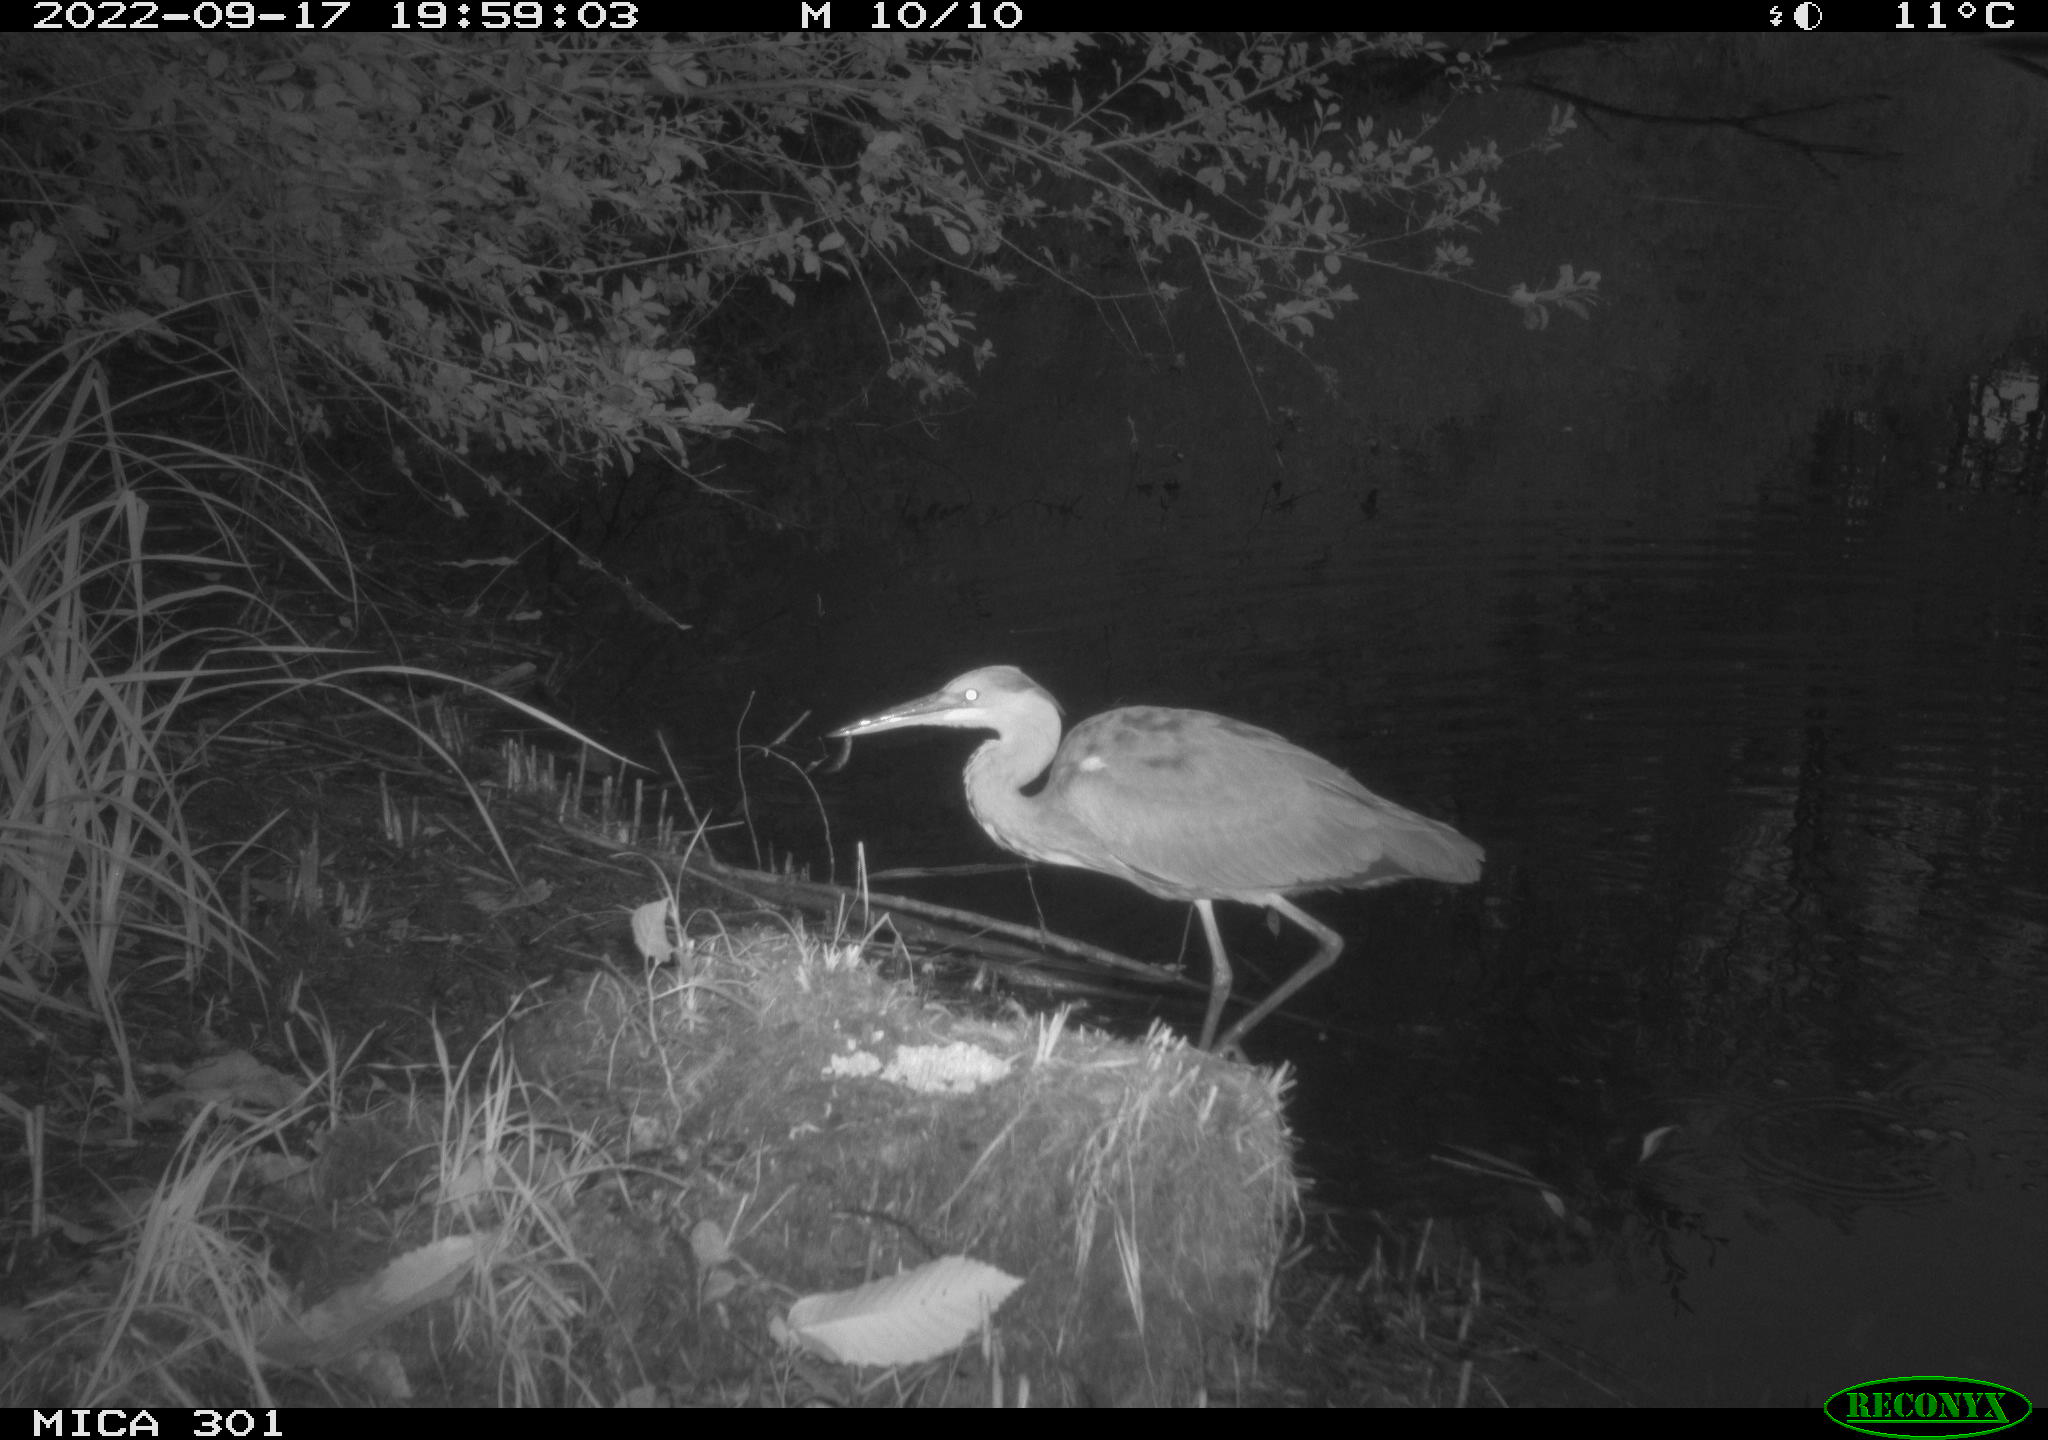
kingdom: Animalia
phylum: Chordata
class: Aves
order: Pelecaniformes
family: Ardeidae
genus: Ardea
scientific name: Ardea cinerea
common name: Grey heron
